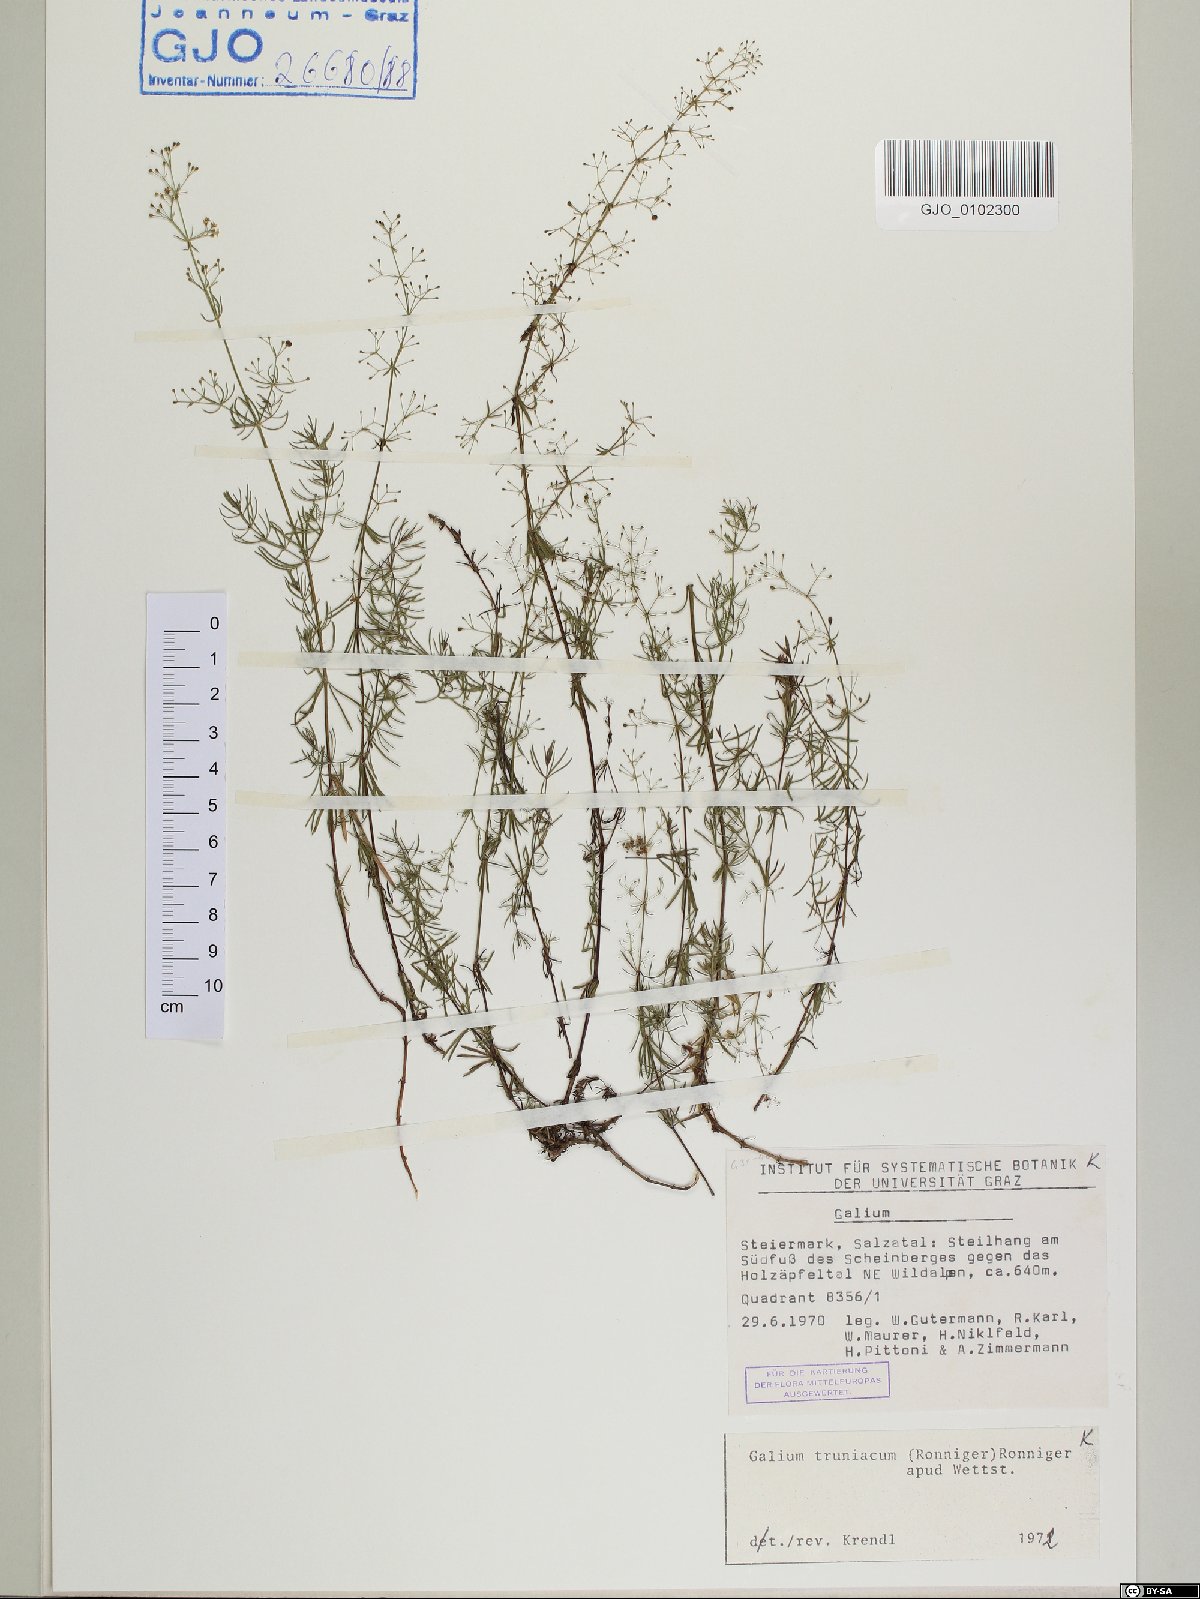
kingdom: Plantae
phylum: Tracheophyta
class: Magnoliopsida
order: Gentianales
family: Rubiaceae
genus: Galium
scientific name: Galium truniacum
